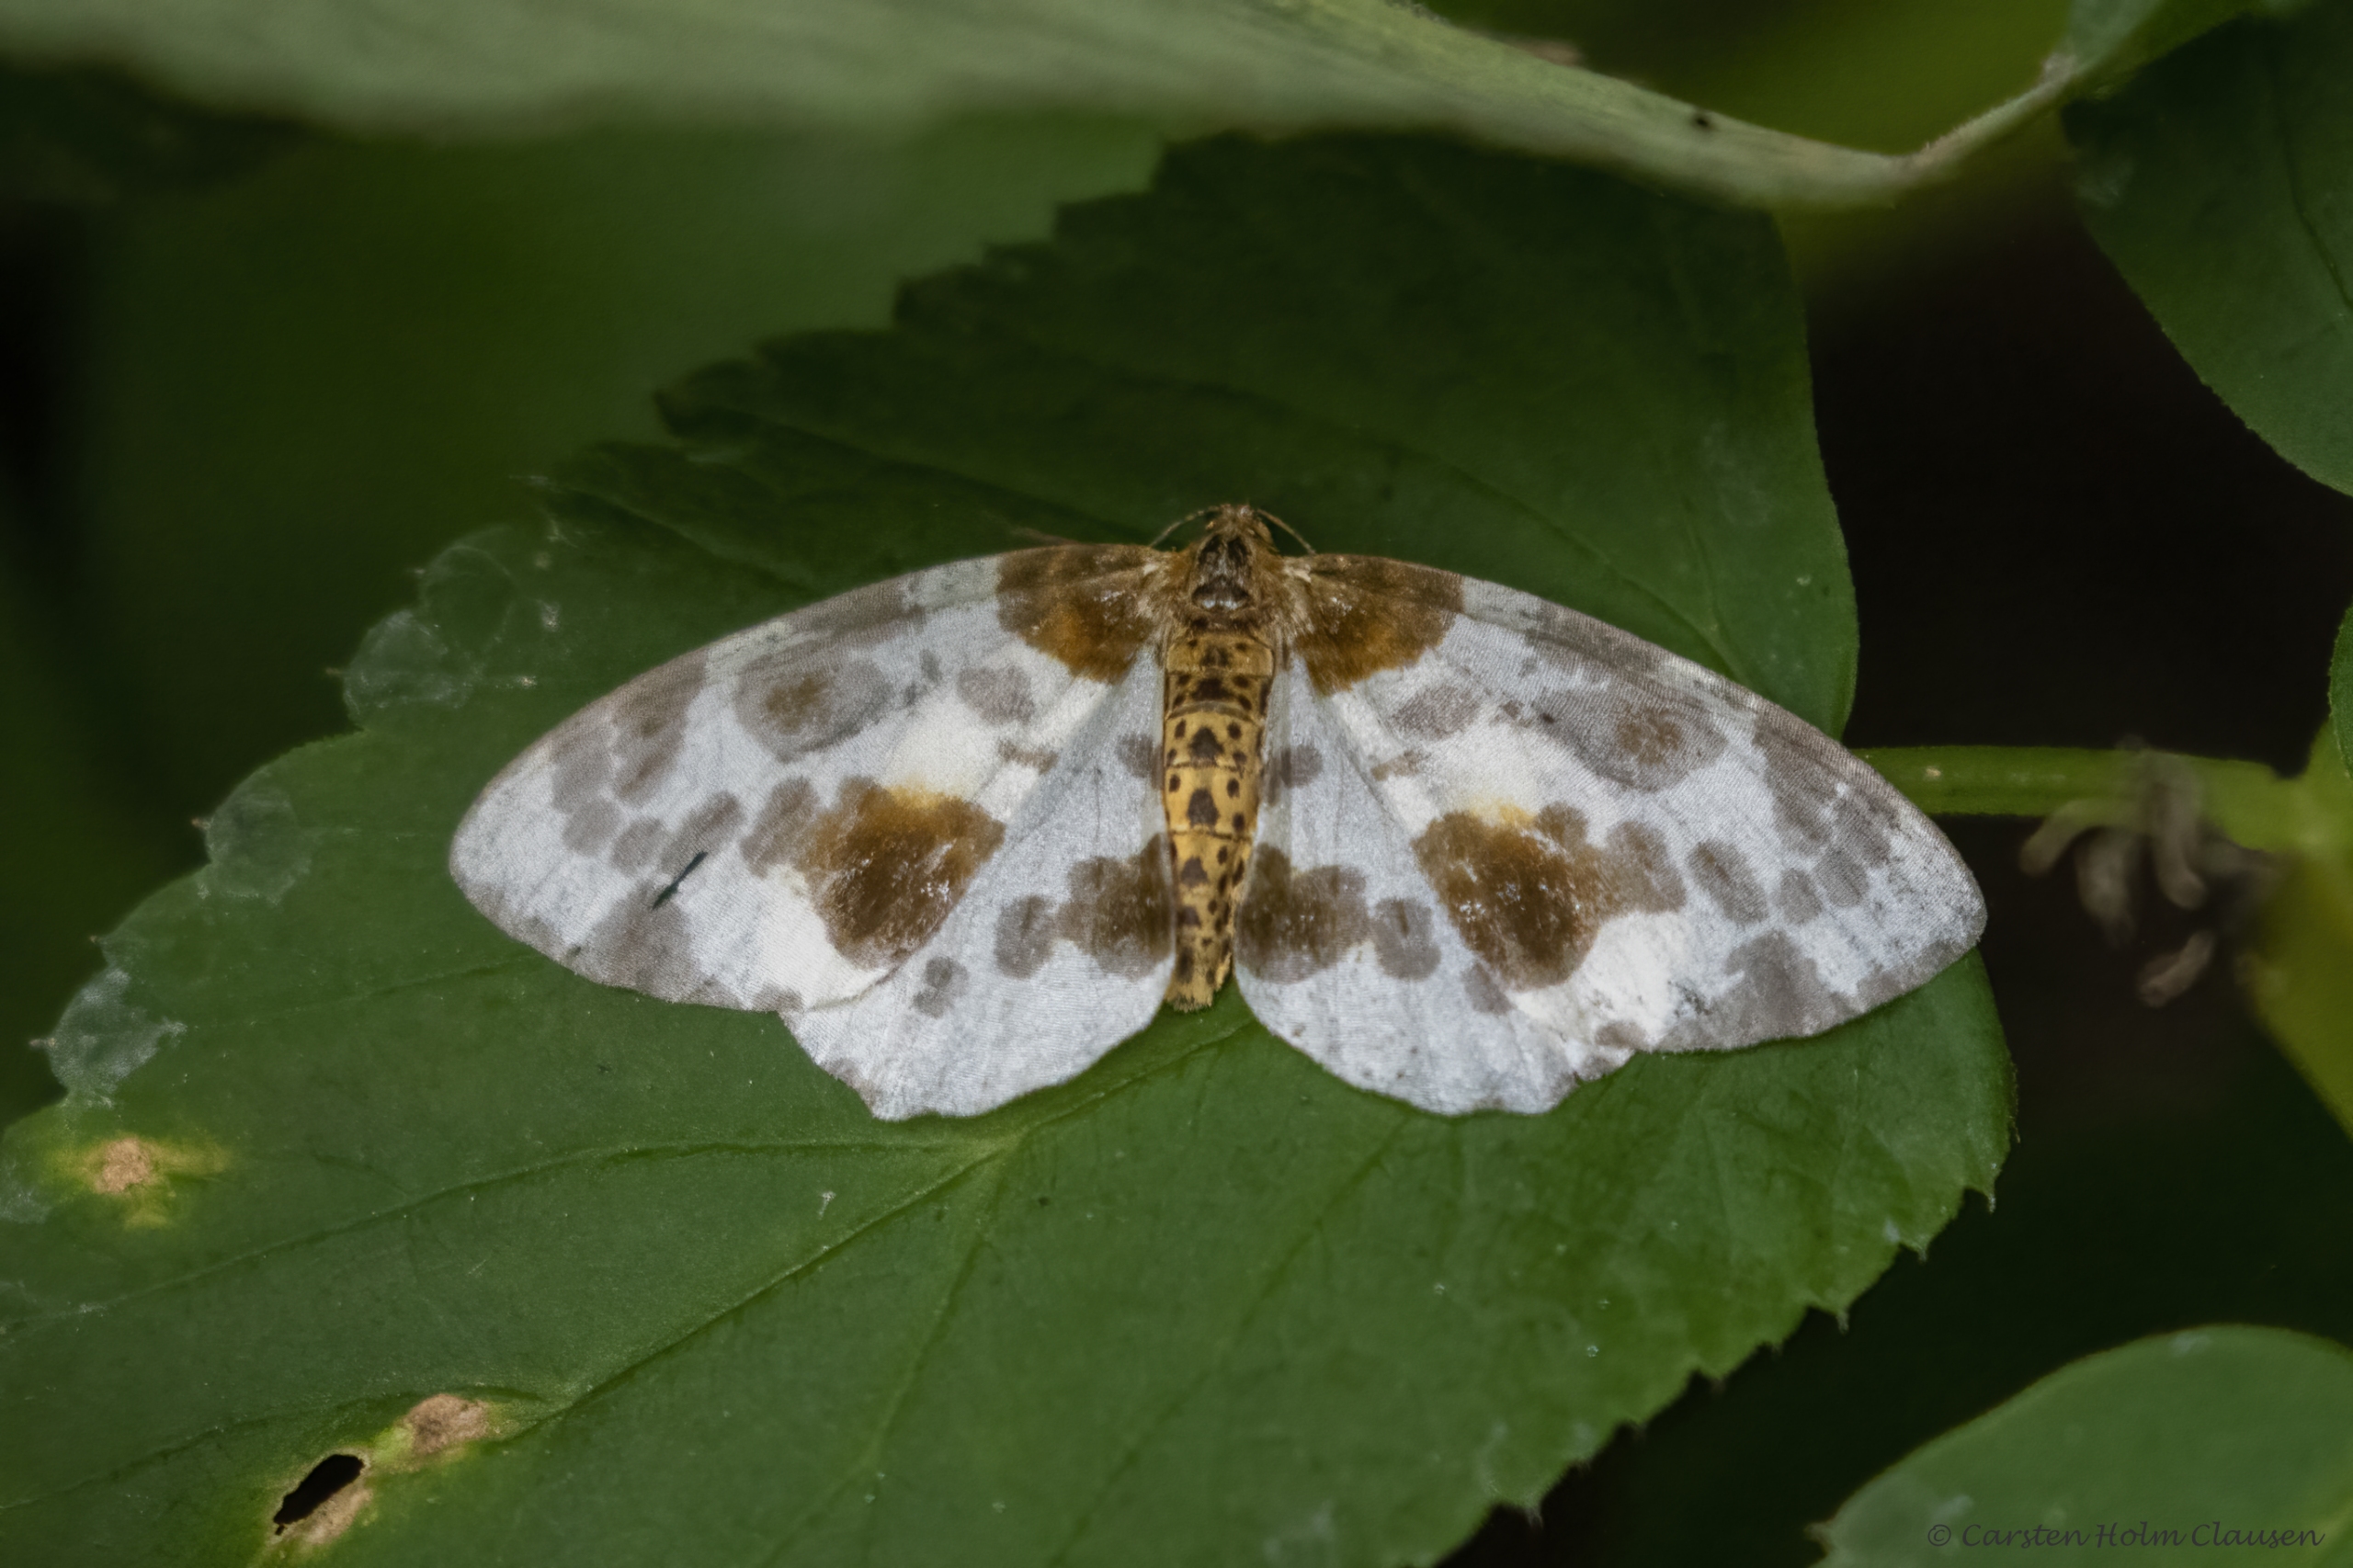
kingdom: Animalia
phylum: Arthropoda
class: Insecta
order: Lepidoptera
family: Geometridae
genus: Abraxas
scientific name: Abraxas sylvata
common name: Elmemåler
